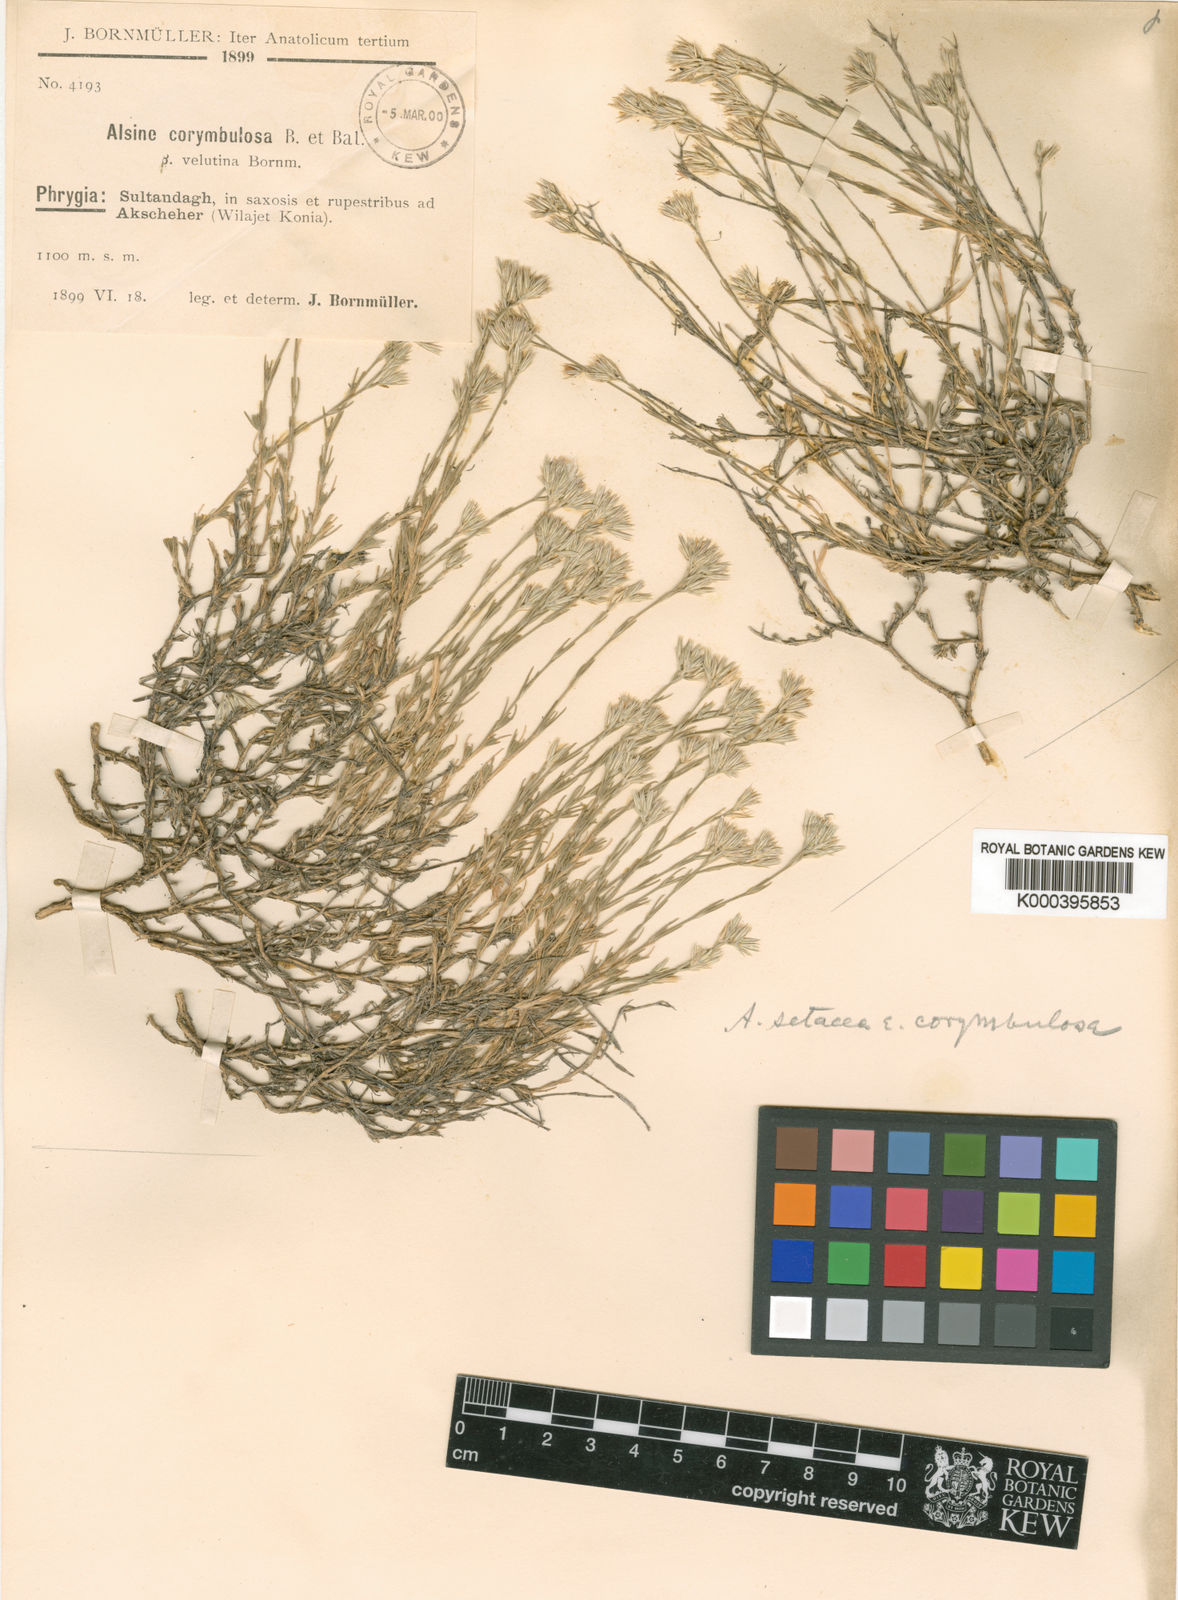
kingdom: Plantae
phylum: Tracheophyta
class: Magnoliopsida
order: Caryophyllales
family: Caryophyllaceae
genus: Minuartia
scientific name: Minuartia leucocephaloides
